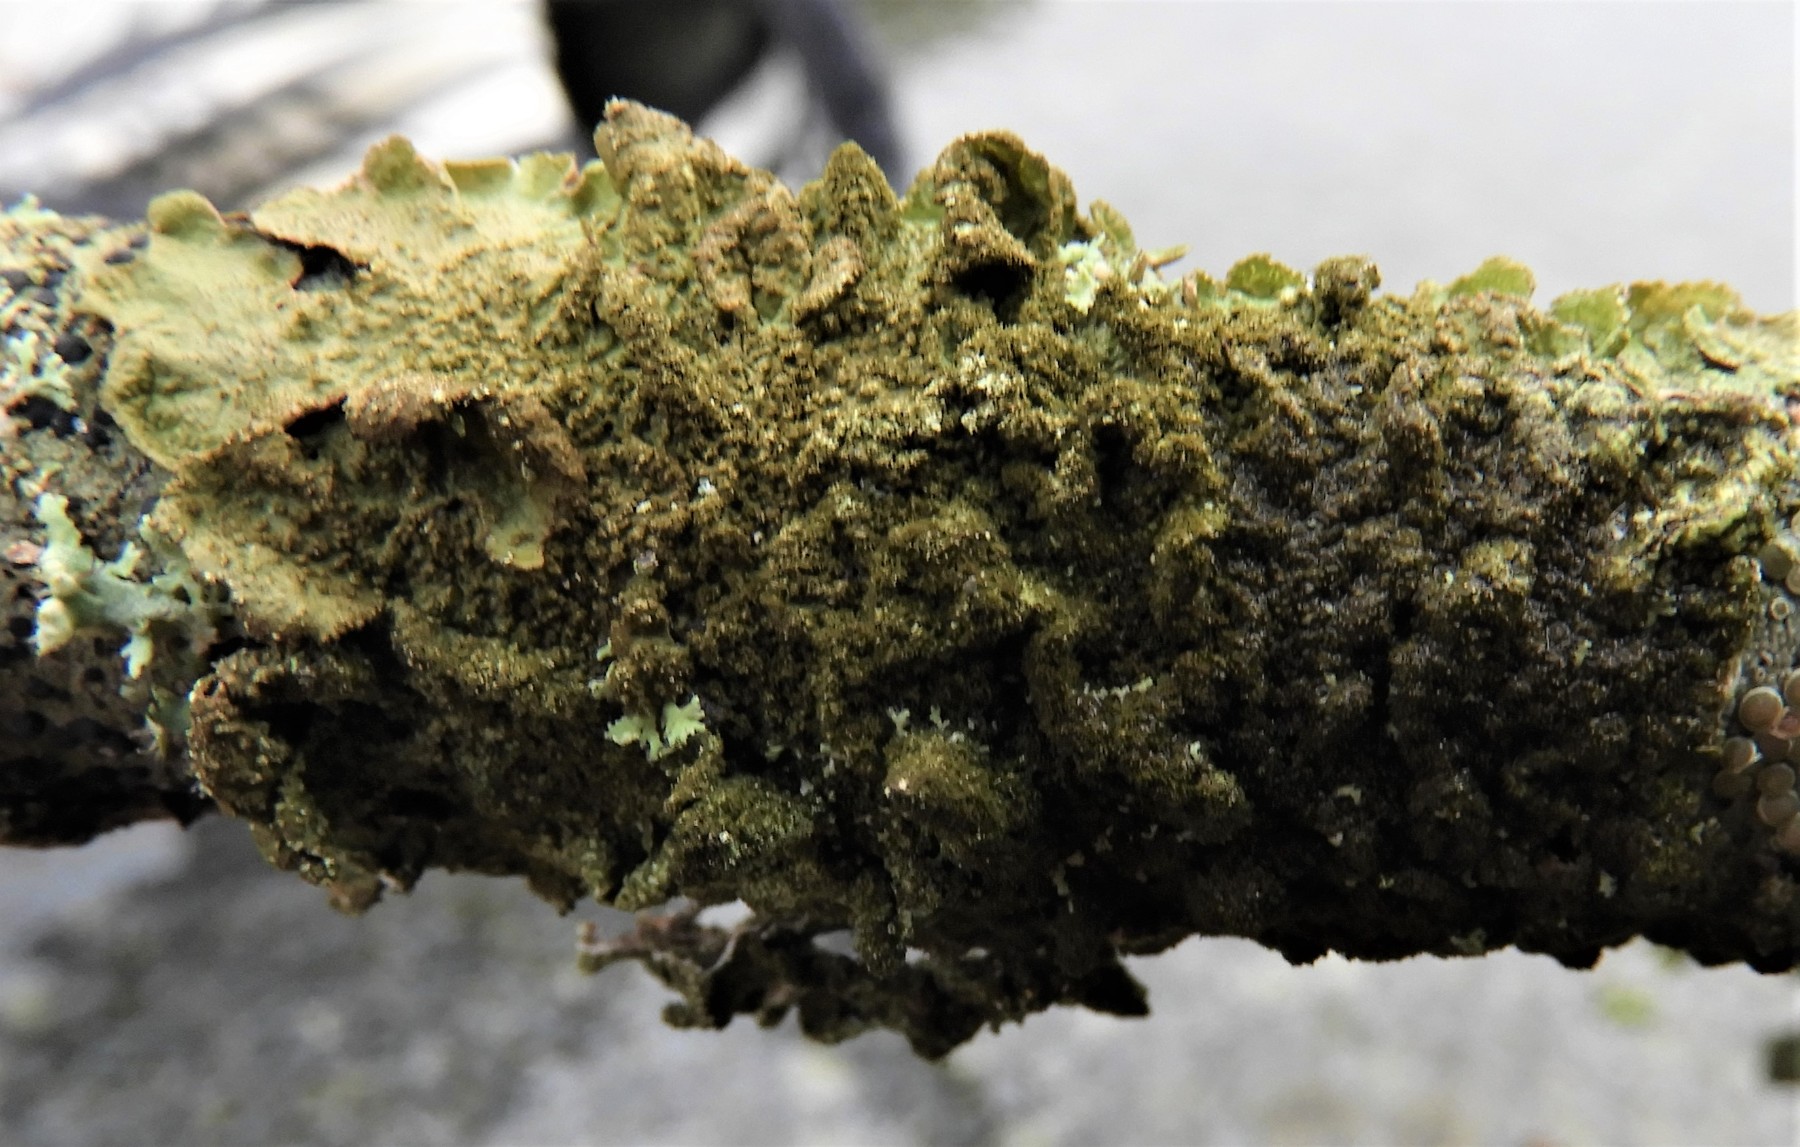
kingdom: Fungi
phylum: Ascomycota
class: Lecanoromycetes
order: Lecanorales
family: Parmeliaceae
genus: Melanelixia
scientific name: Melanelixia subaurifera
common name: guldpudret skållav
